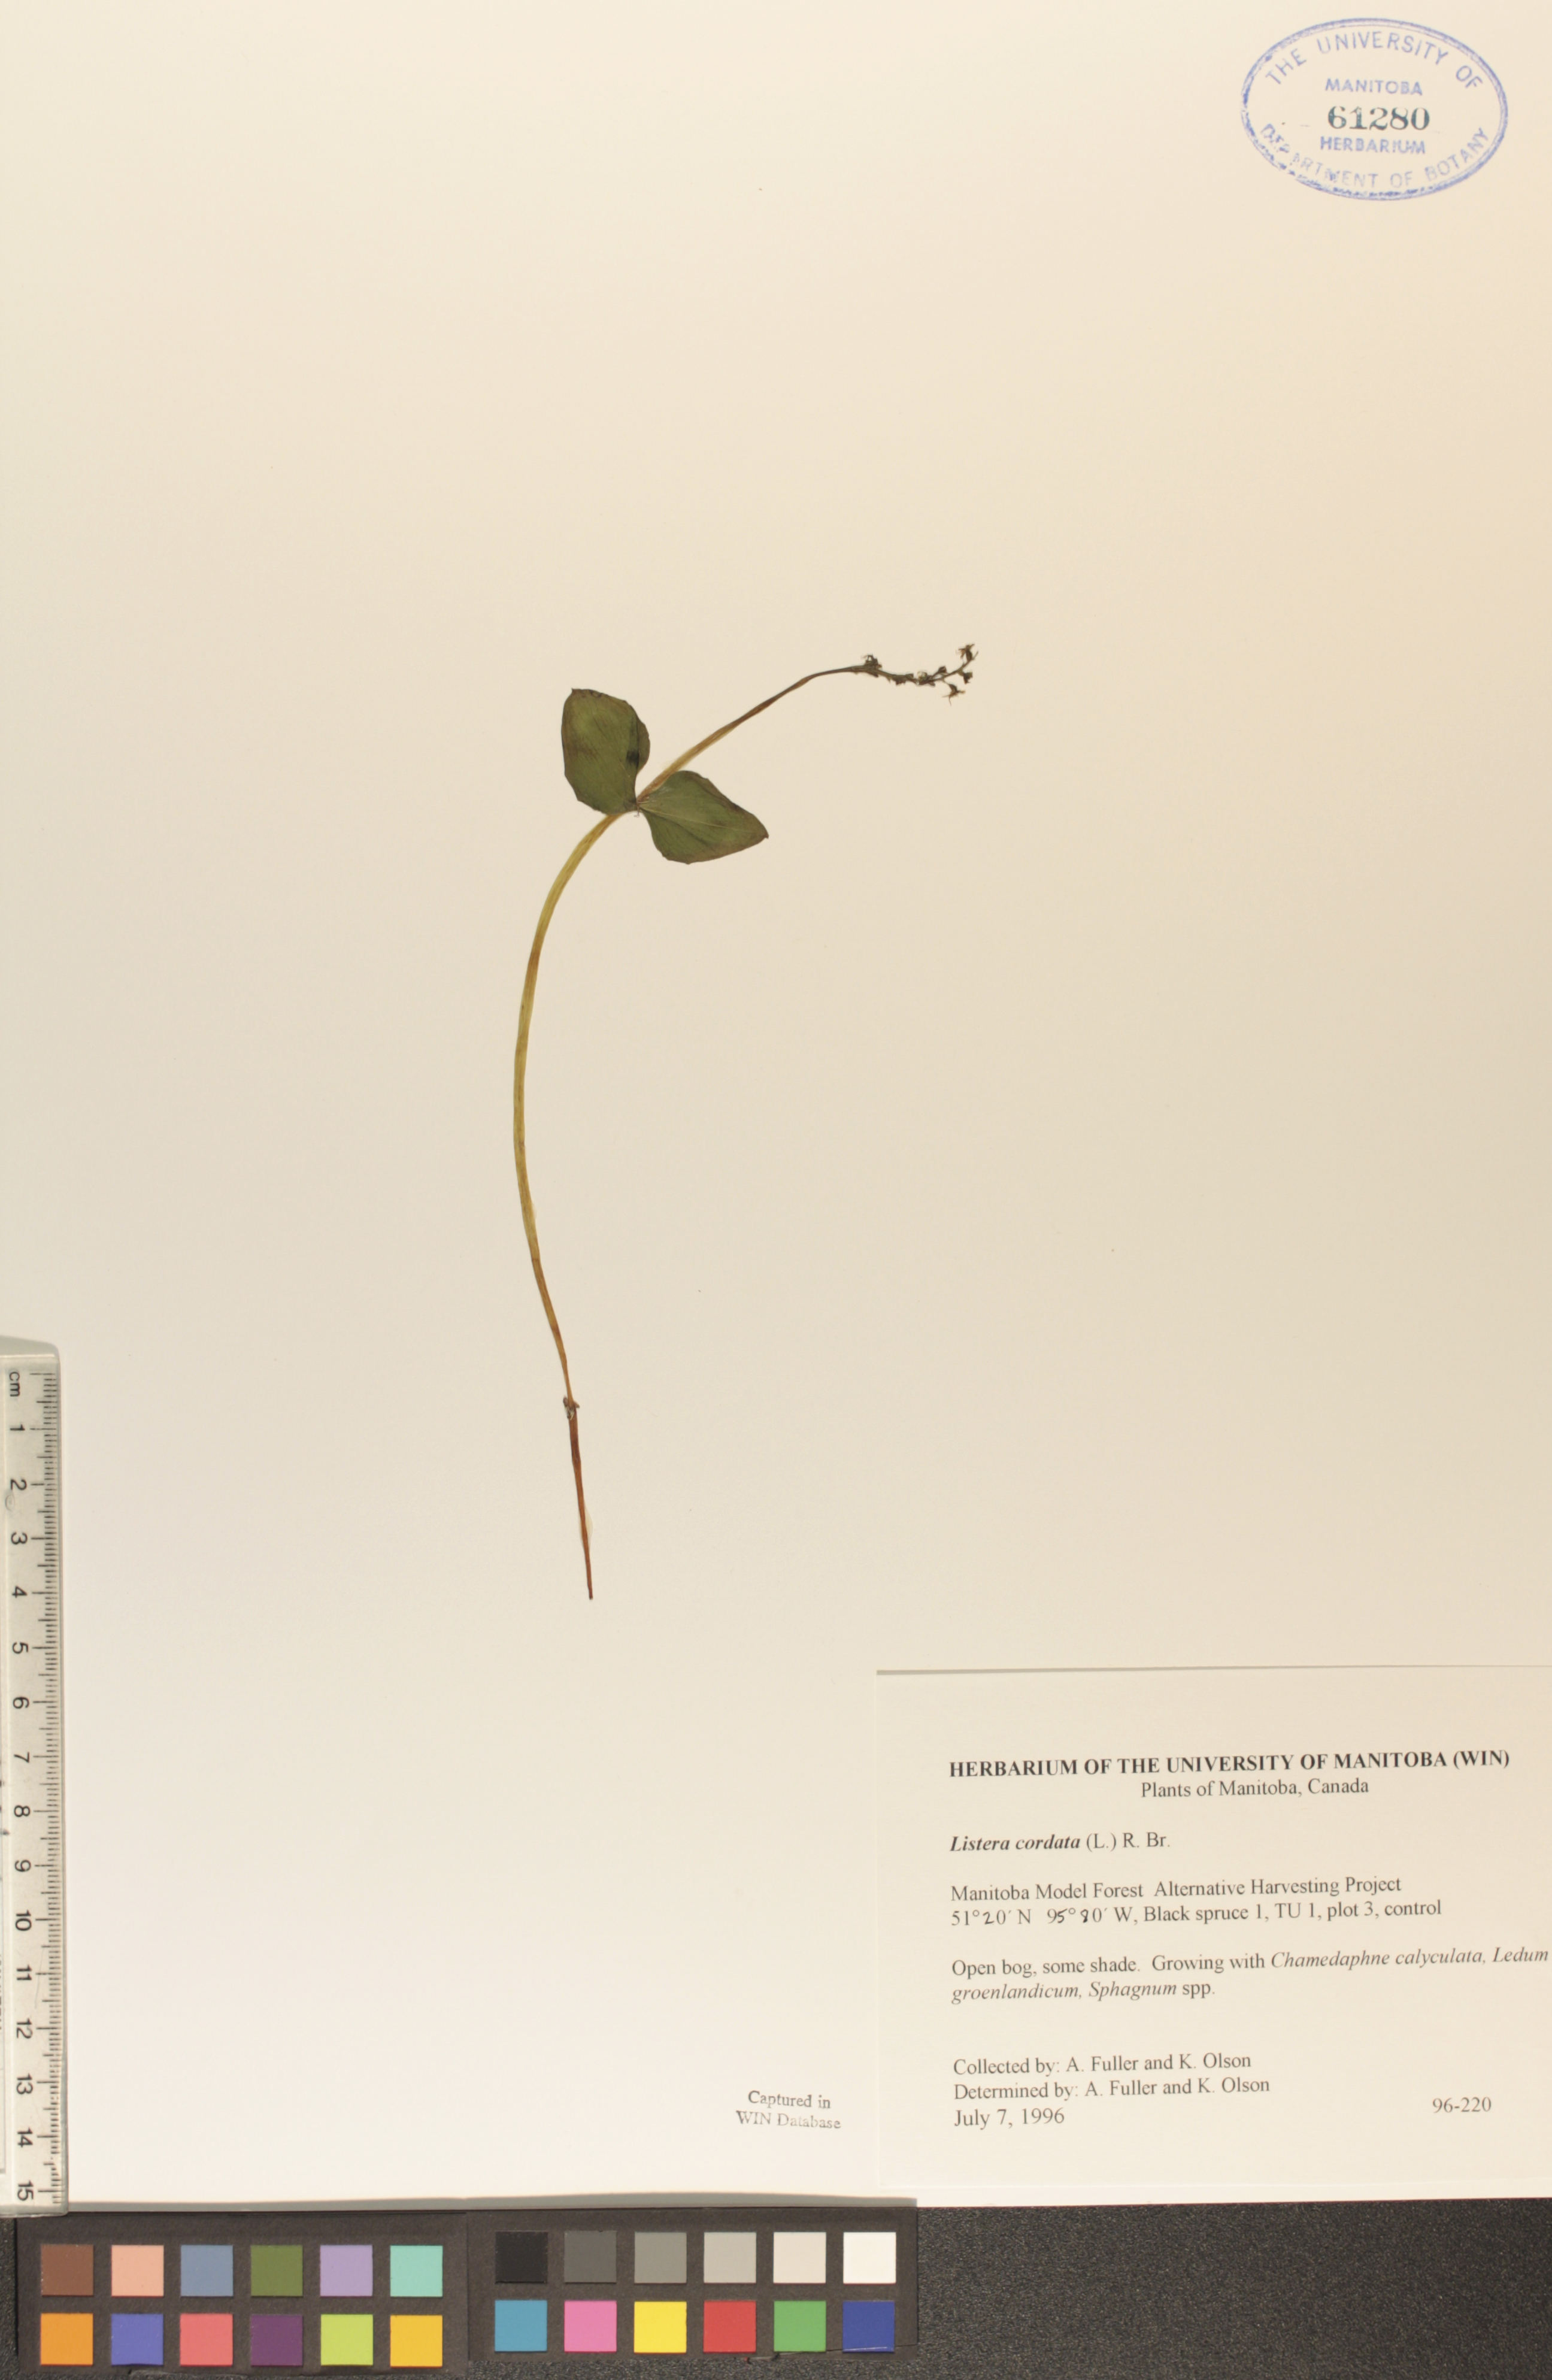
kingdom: Plantae
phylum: Tracheophyta
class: Liliopsida
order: Asparagales
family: Orchidaceae
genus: Neottia
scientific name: Neottia cordata
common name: Lesser twayblade
